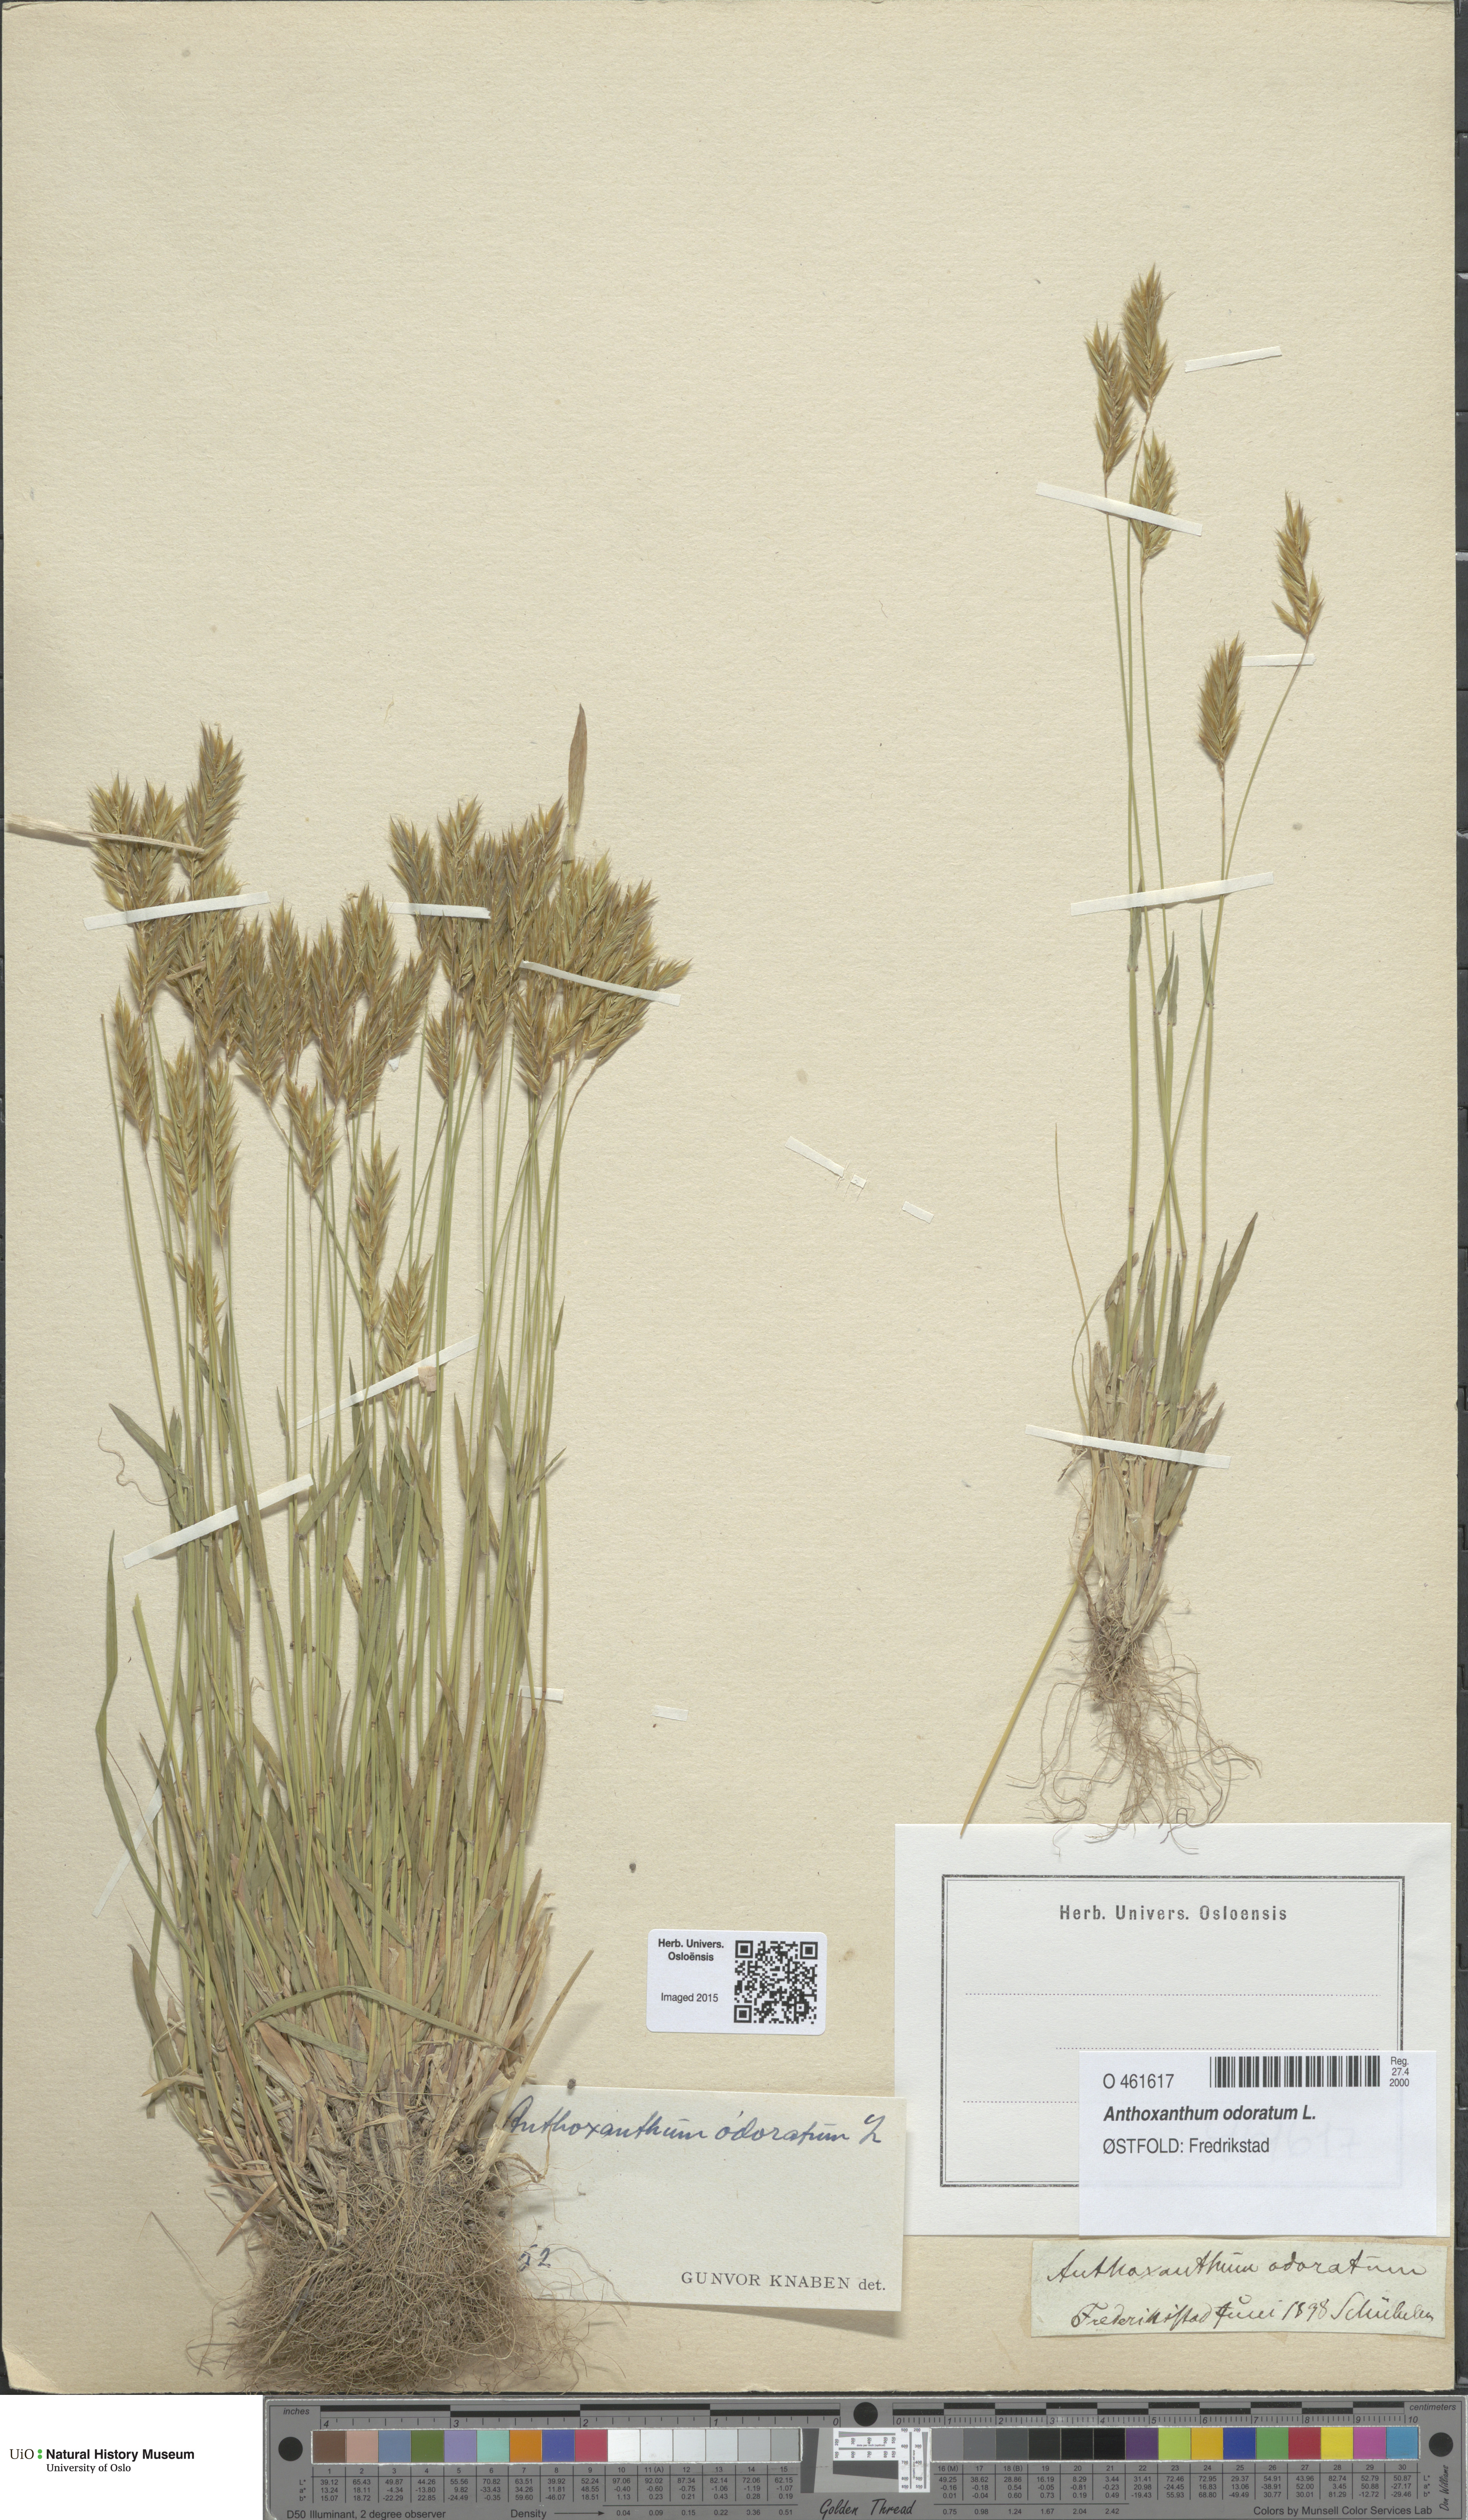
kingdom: Plantae
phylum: Tracheophyta
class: Liliopsida
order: Poales
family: Poaceae
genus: Anthoxanthum
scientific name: Anthoxanthum odoratum
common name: Sweet vernalgrass
